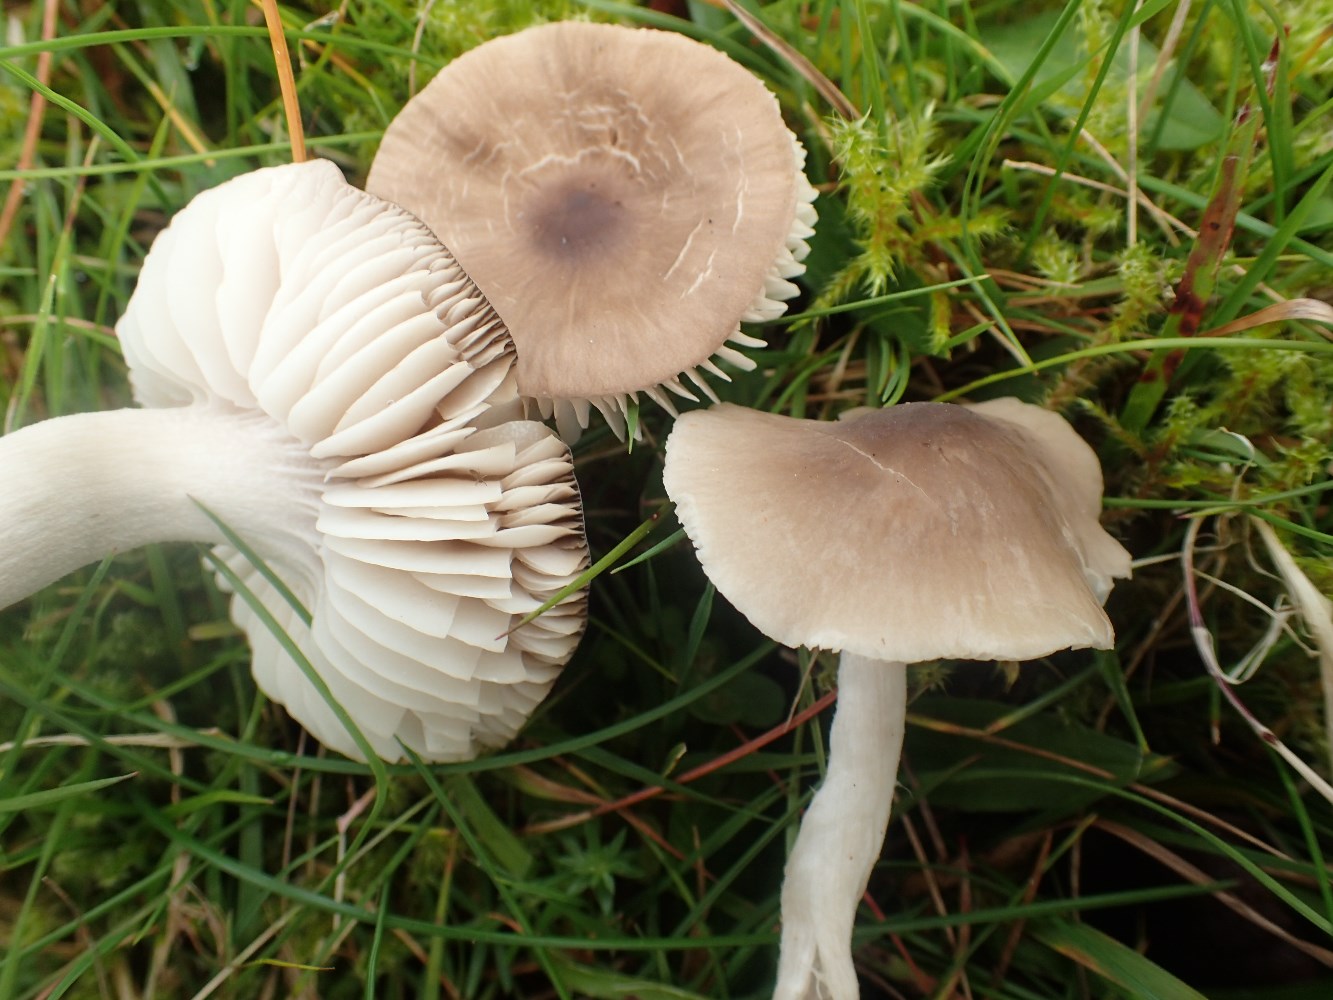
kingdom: Fungi
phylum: Basidiomycota
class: Agaricomycetes
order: Agaricales
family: Hygrophoraceae
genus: Neohygrocybe
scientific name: Neohygrocybe nitrata
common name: stinkende vokshat
